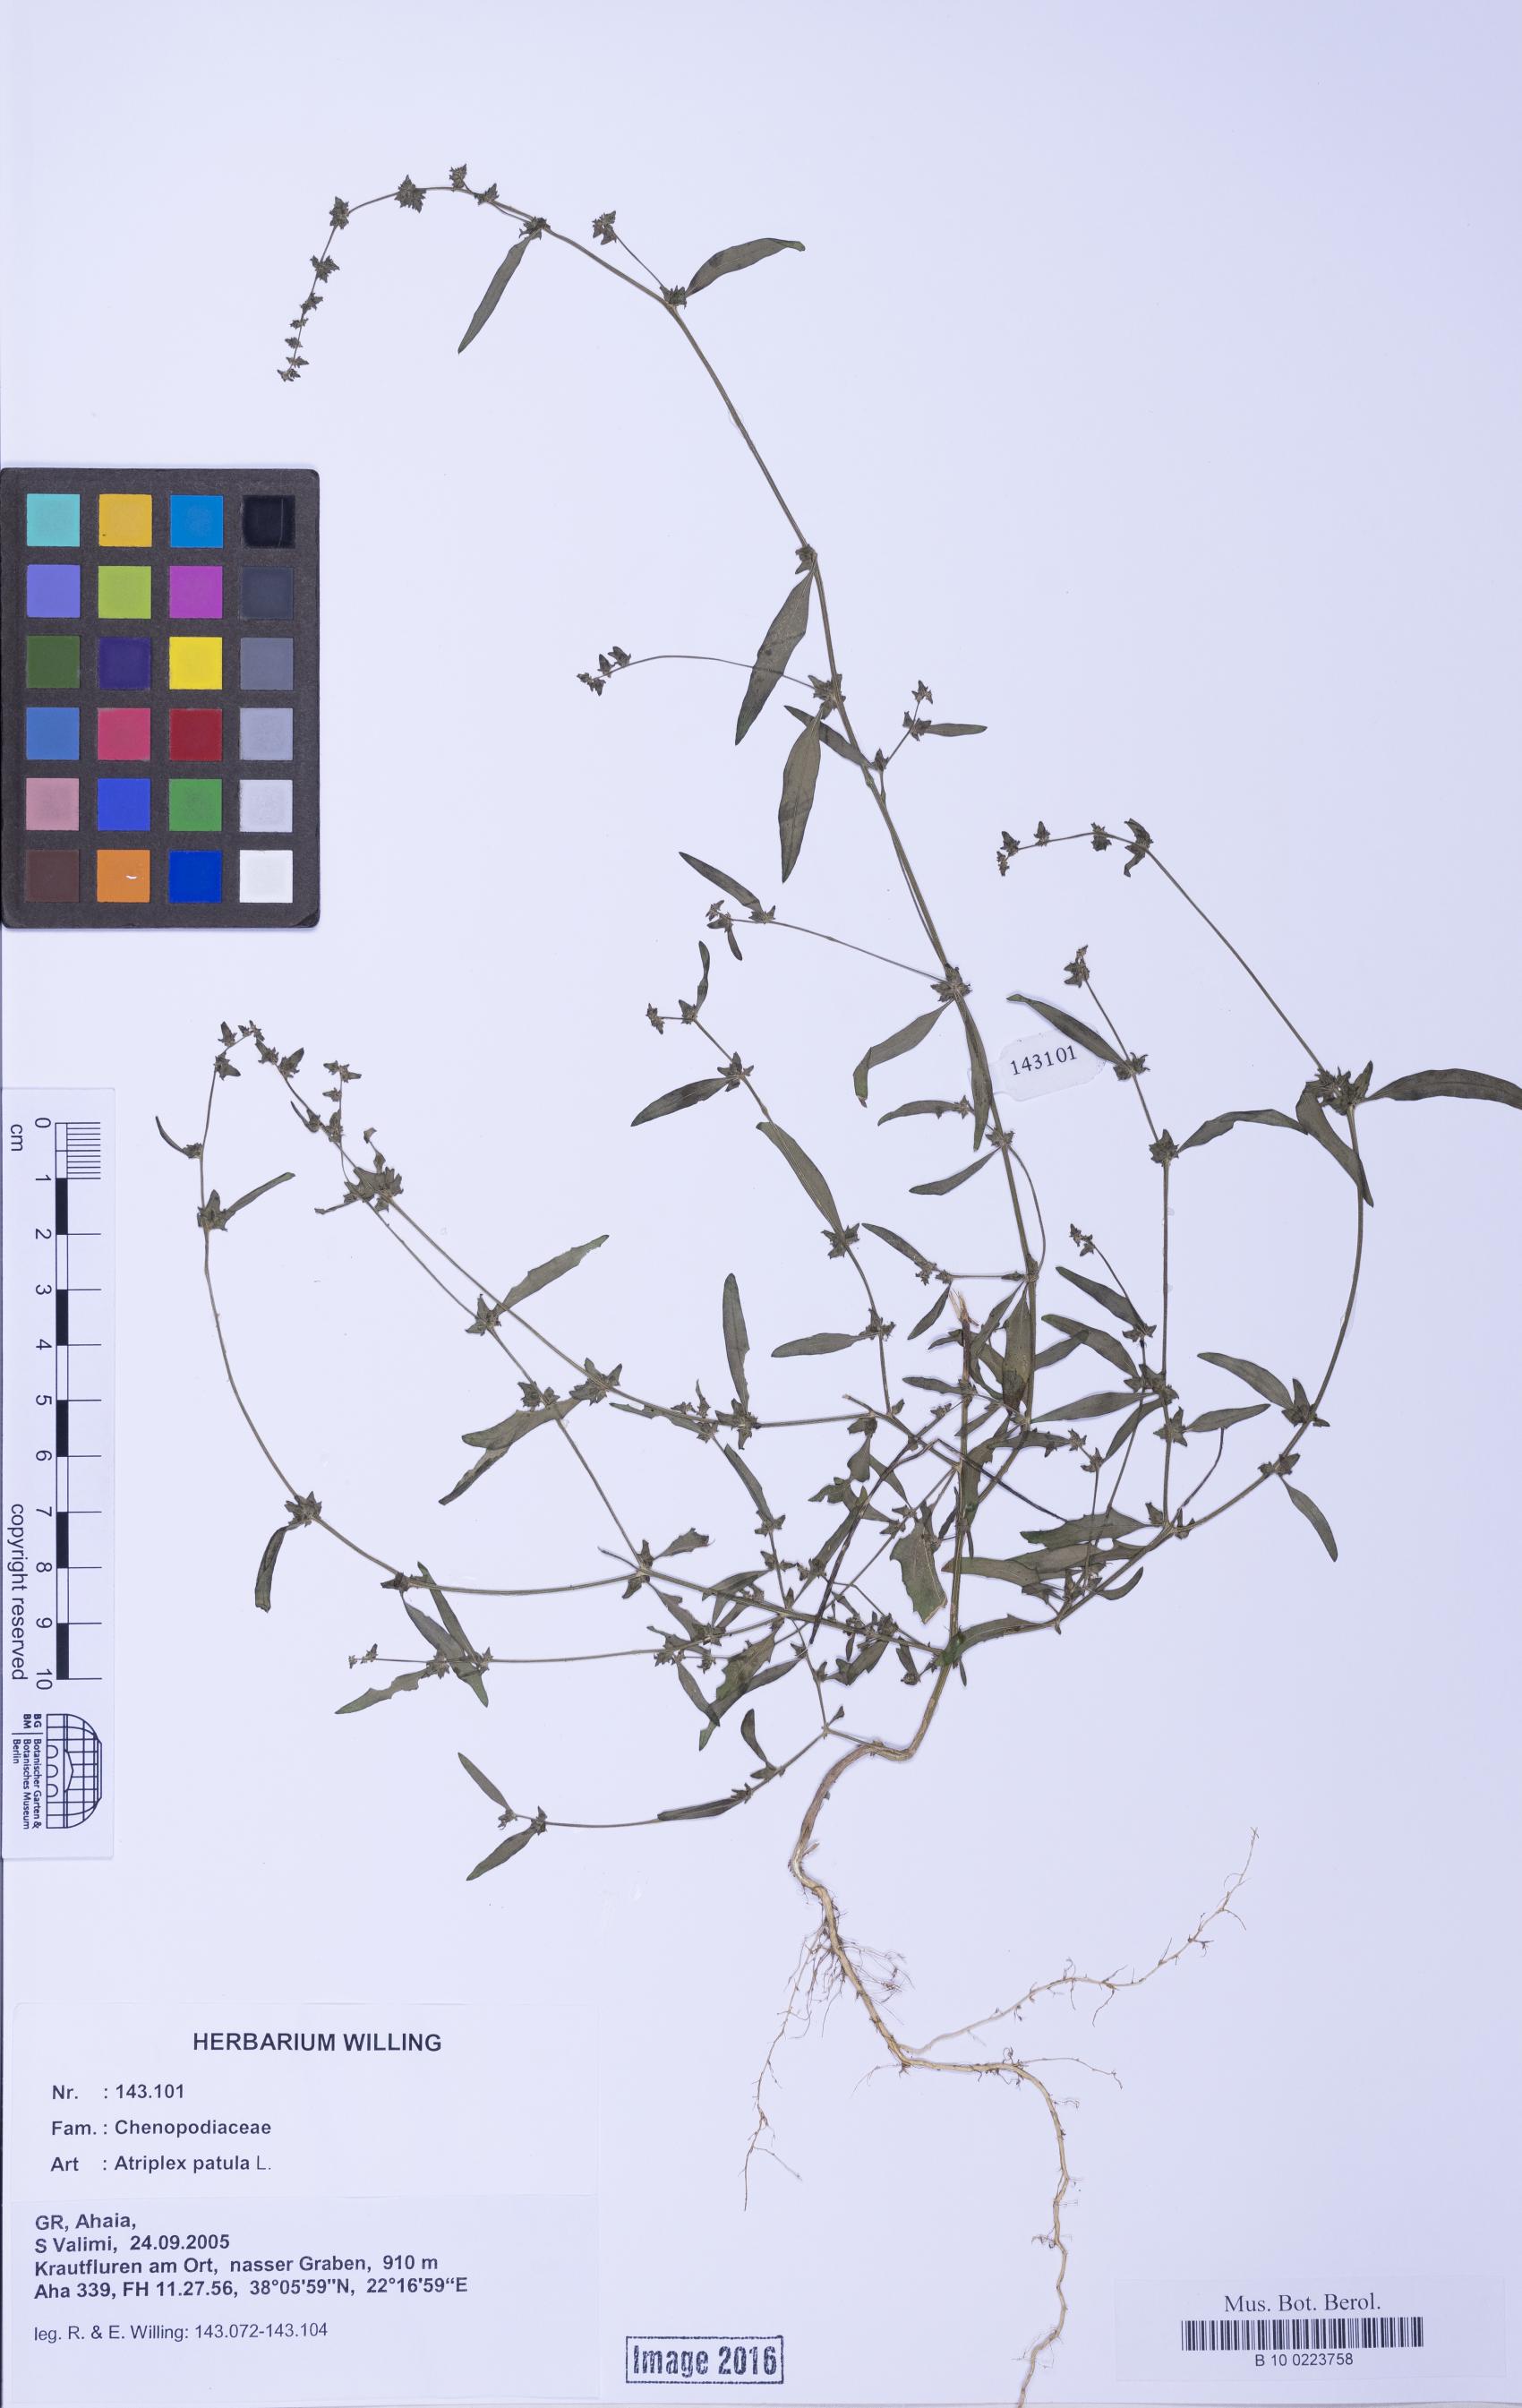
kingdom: Plantae
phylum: Tracheophyta
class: Magnoliopsida
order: Caryophyllales
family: Amaranthaceae
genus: Atriplex
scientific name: Atriplex patula
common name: Common orache
